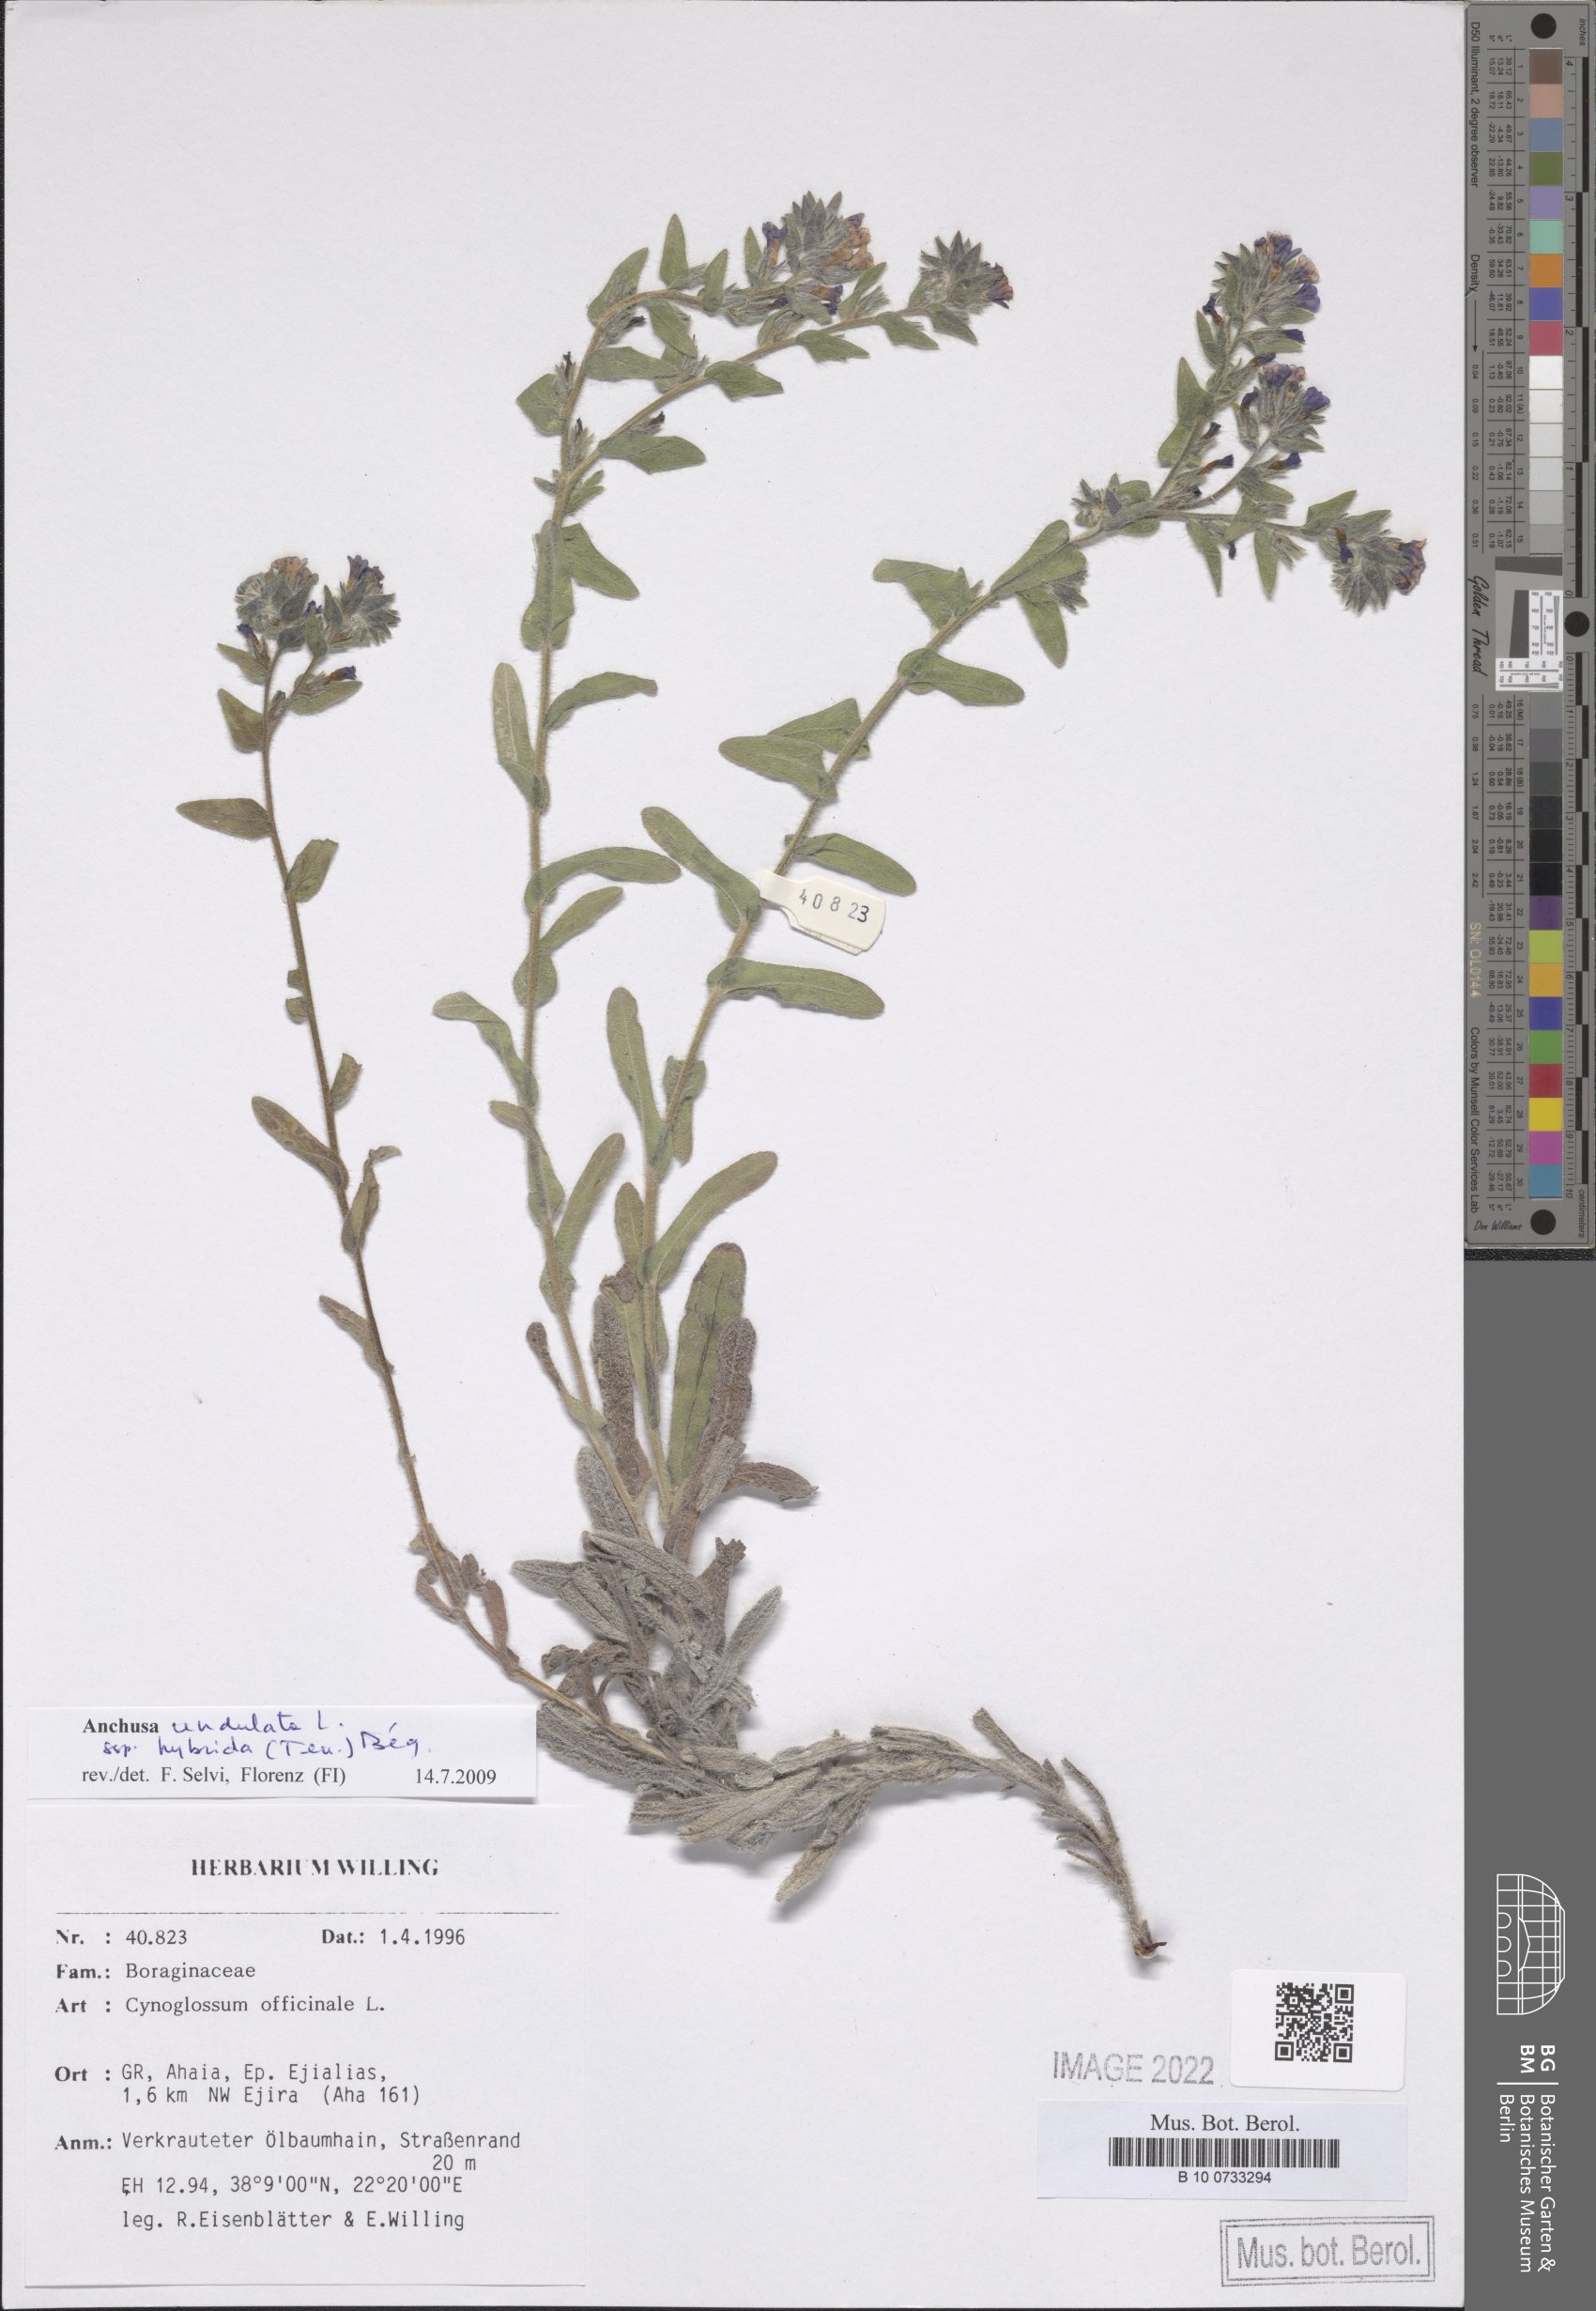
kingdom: Plantae
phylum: Tracheophyta
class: Magnoliopsida
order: Boraginales
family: Boraginaceae
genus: Anchusa
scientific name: Anchusa undulata
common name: Undulate alkanet
